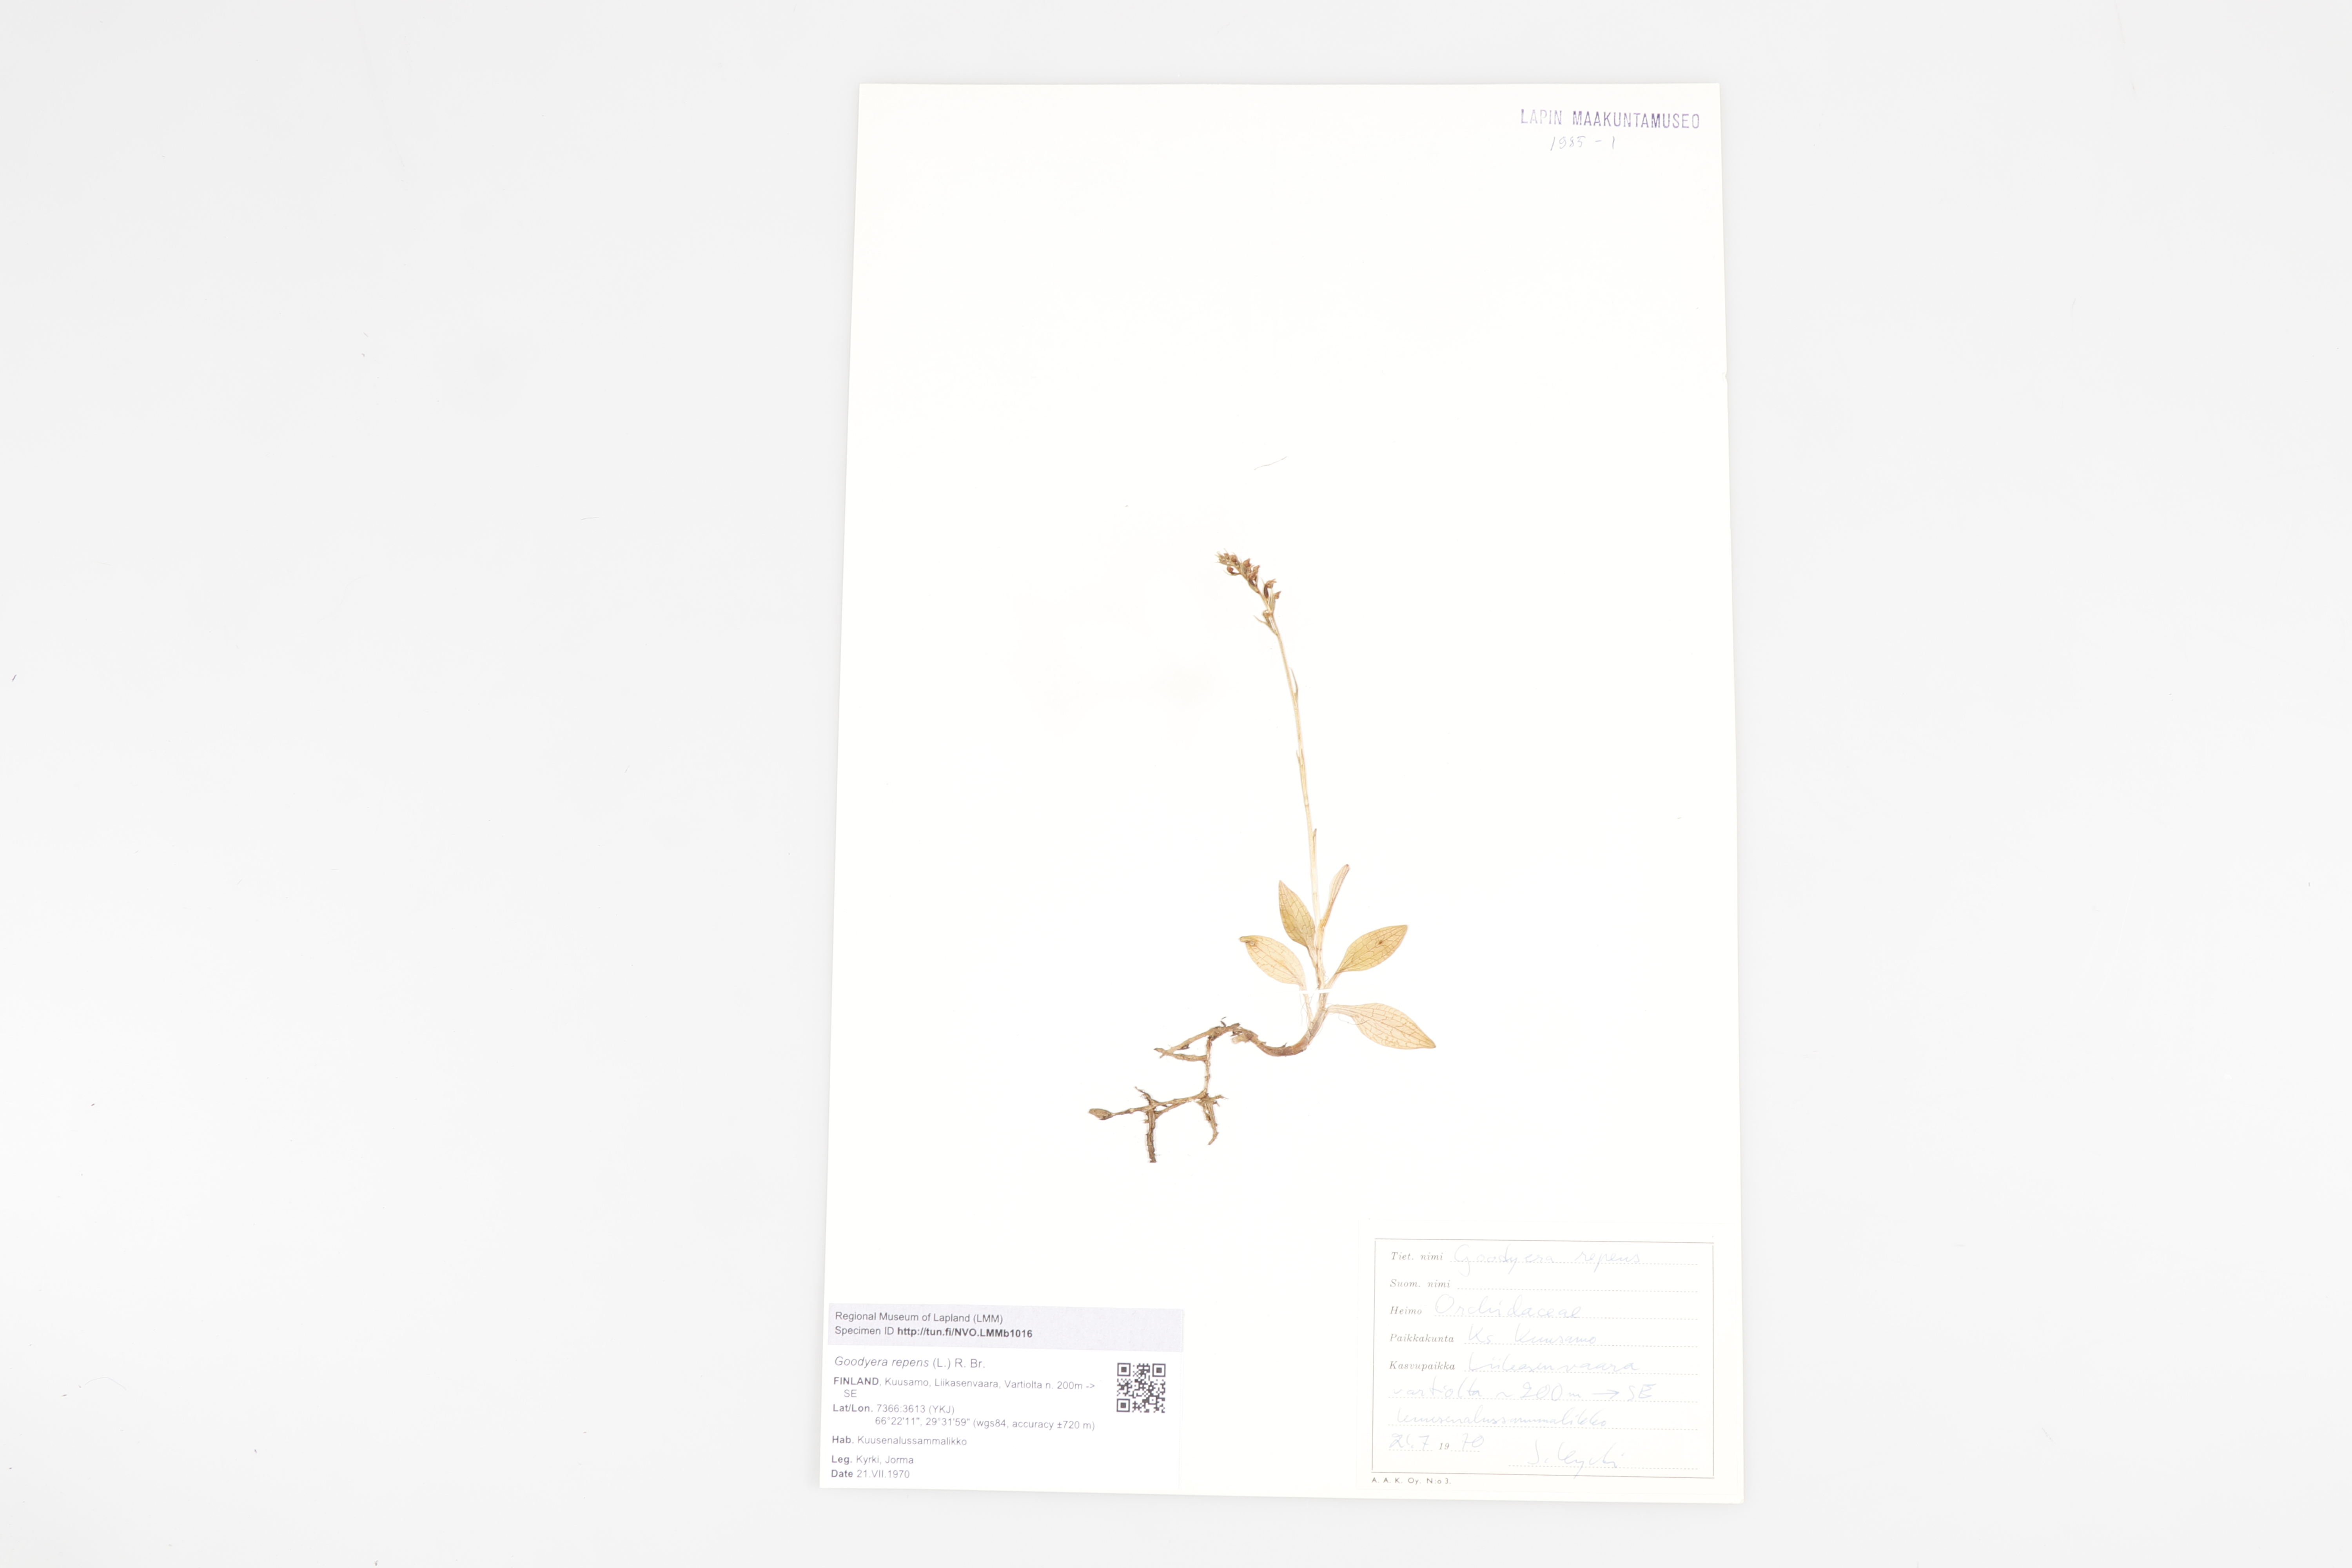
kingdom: Plantae
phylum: Tracheophyta
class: Liliopsida
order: Asparagales
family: Orchidaceae
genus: Goodyera
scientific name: Goodyera repens
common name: Creeping lady's-tresses
